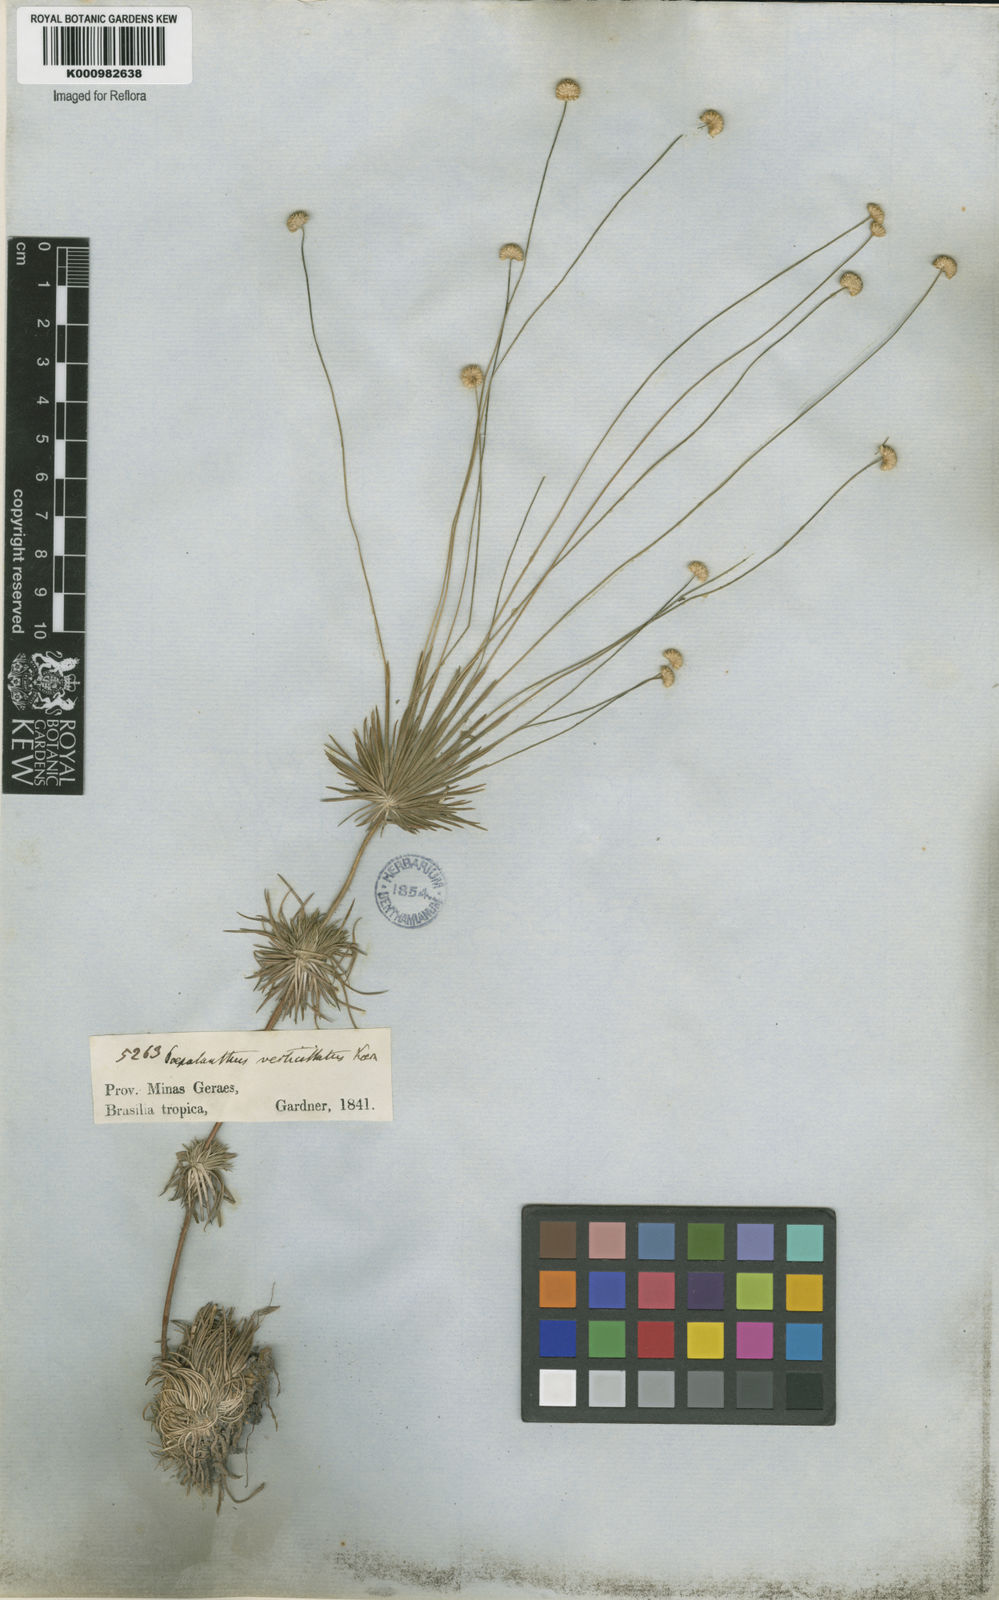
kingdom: Plantae
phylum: Tracheophyta
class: Liliopsida
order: Poales
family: Eriocaulaceae
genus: Syngonanthus
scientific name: Syngonanthus verticillatus
